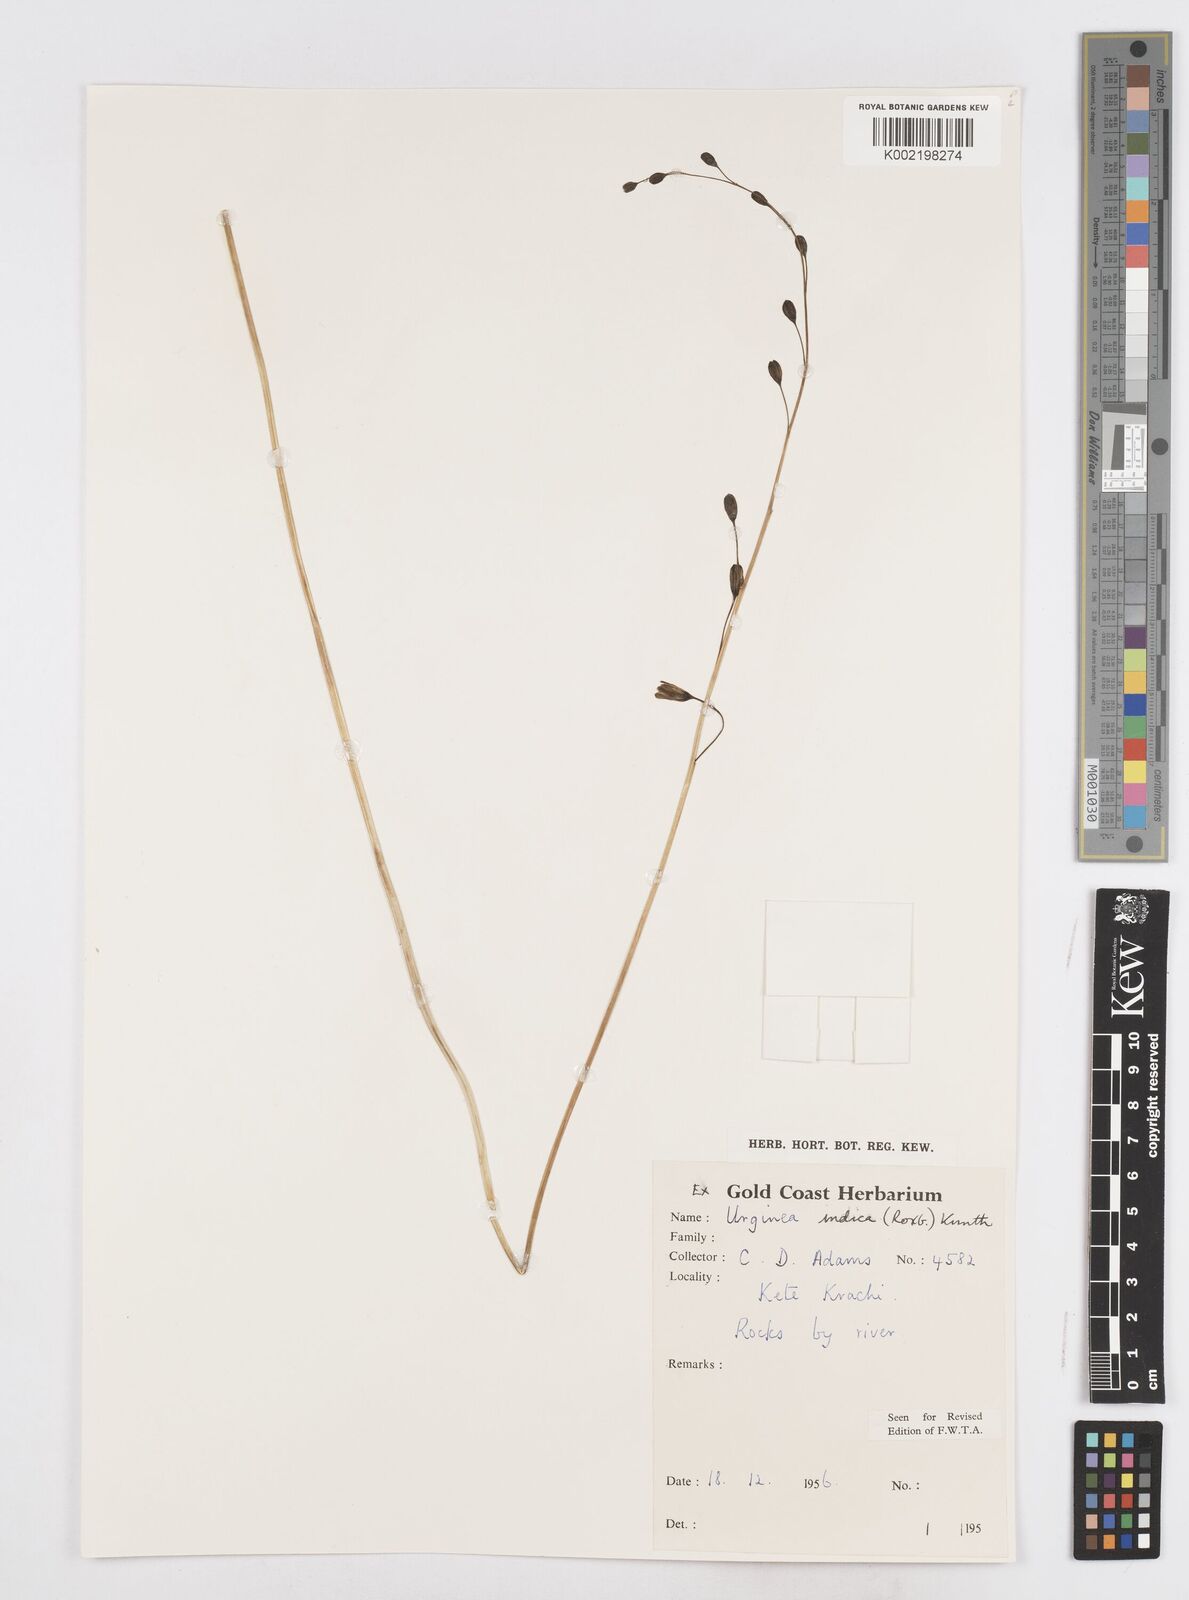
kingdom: Plantae
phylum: Tracheophyta
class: Liliopsida
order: Asparagales
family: Asparagaceae
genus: Drimia
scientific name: Drimia indica
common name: Indian-squill
